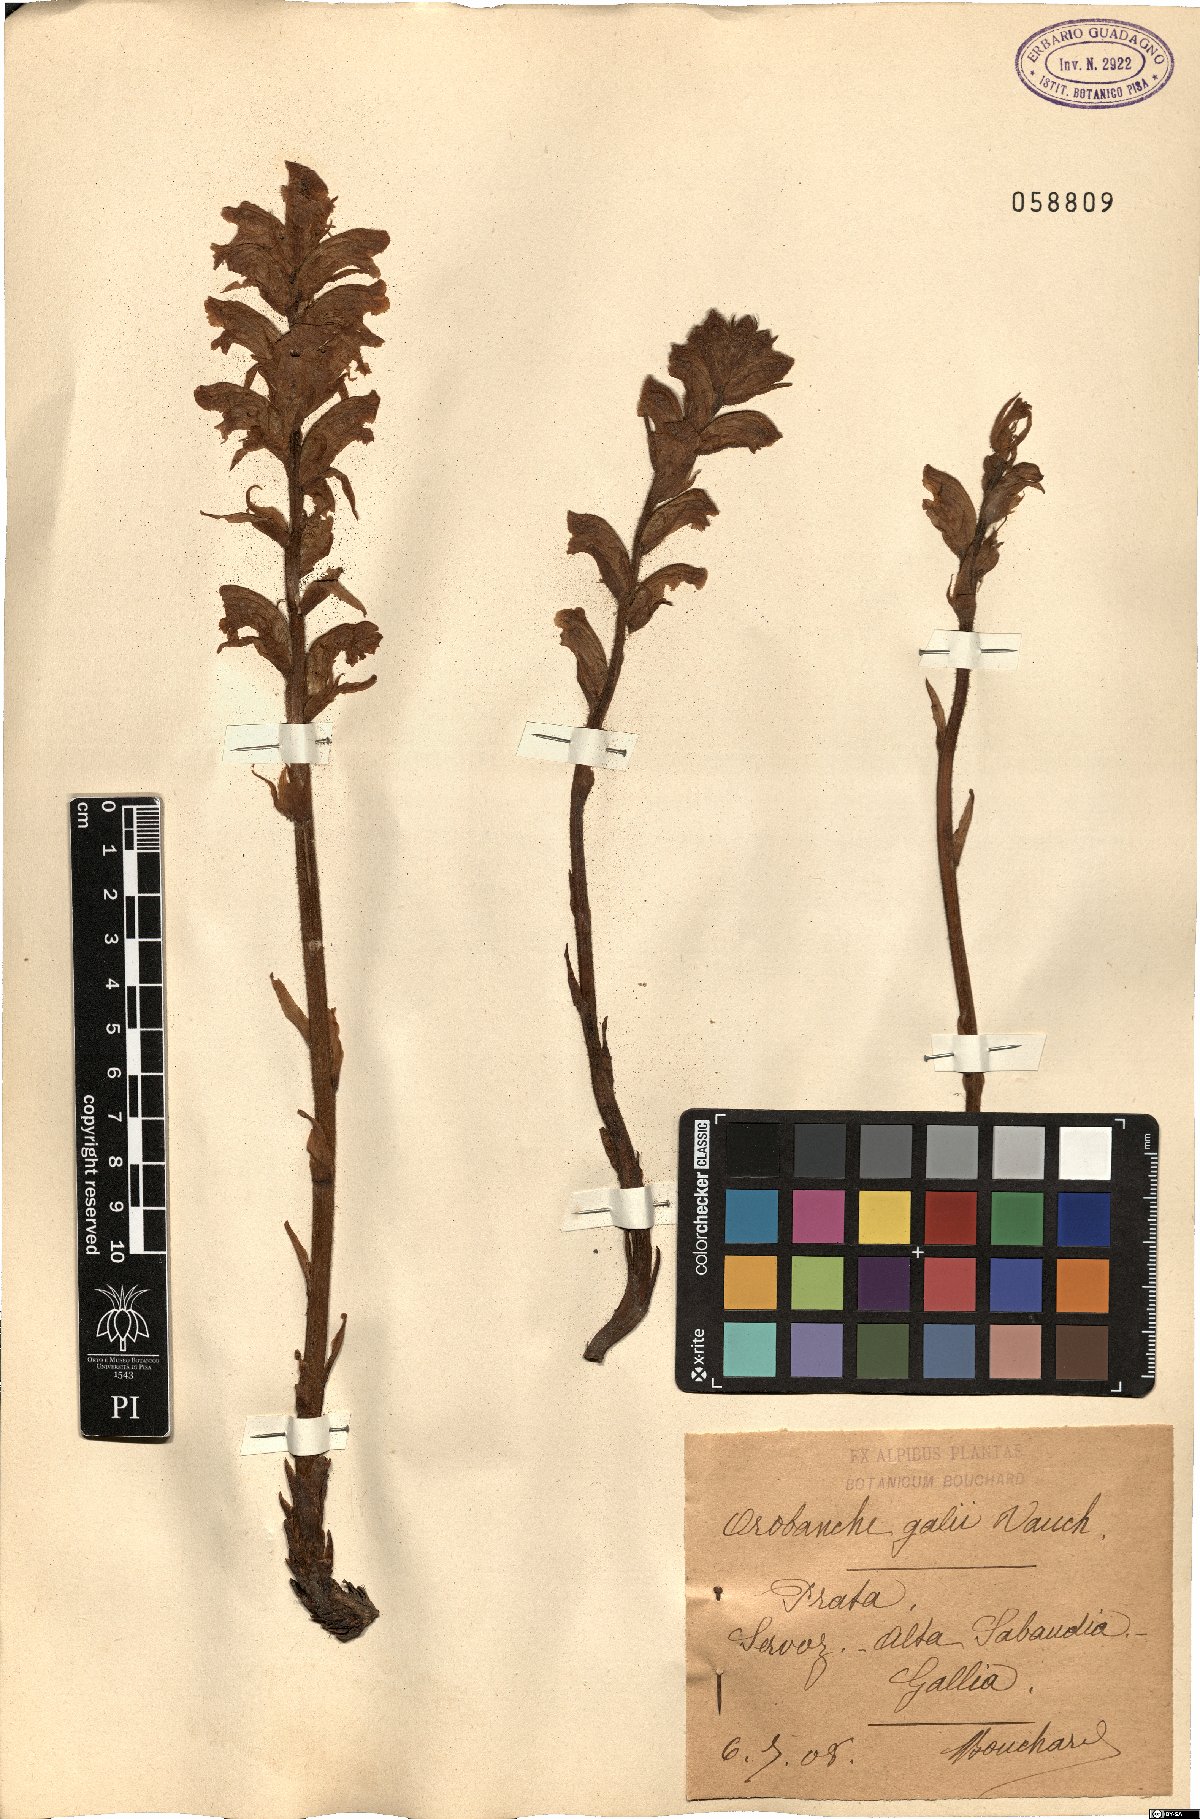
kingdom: Plantae
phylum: Tracheophyta
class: Magnoliopsida
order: Lamiales
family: Orobanchaceae
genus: Orobanche
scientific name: Orobanche caryophyllacea
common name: Bedstraw broomrape
